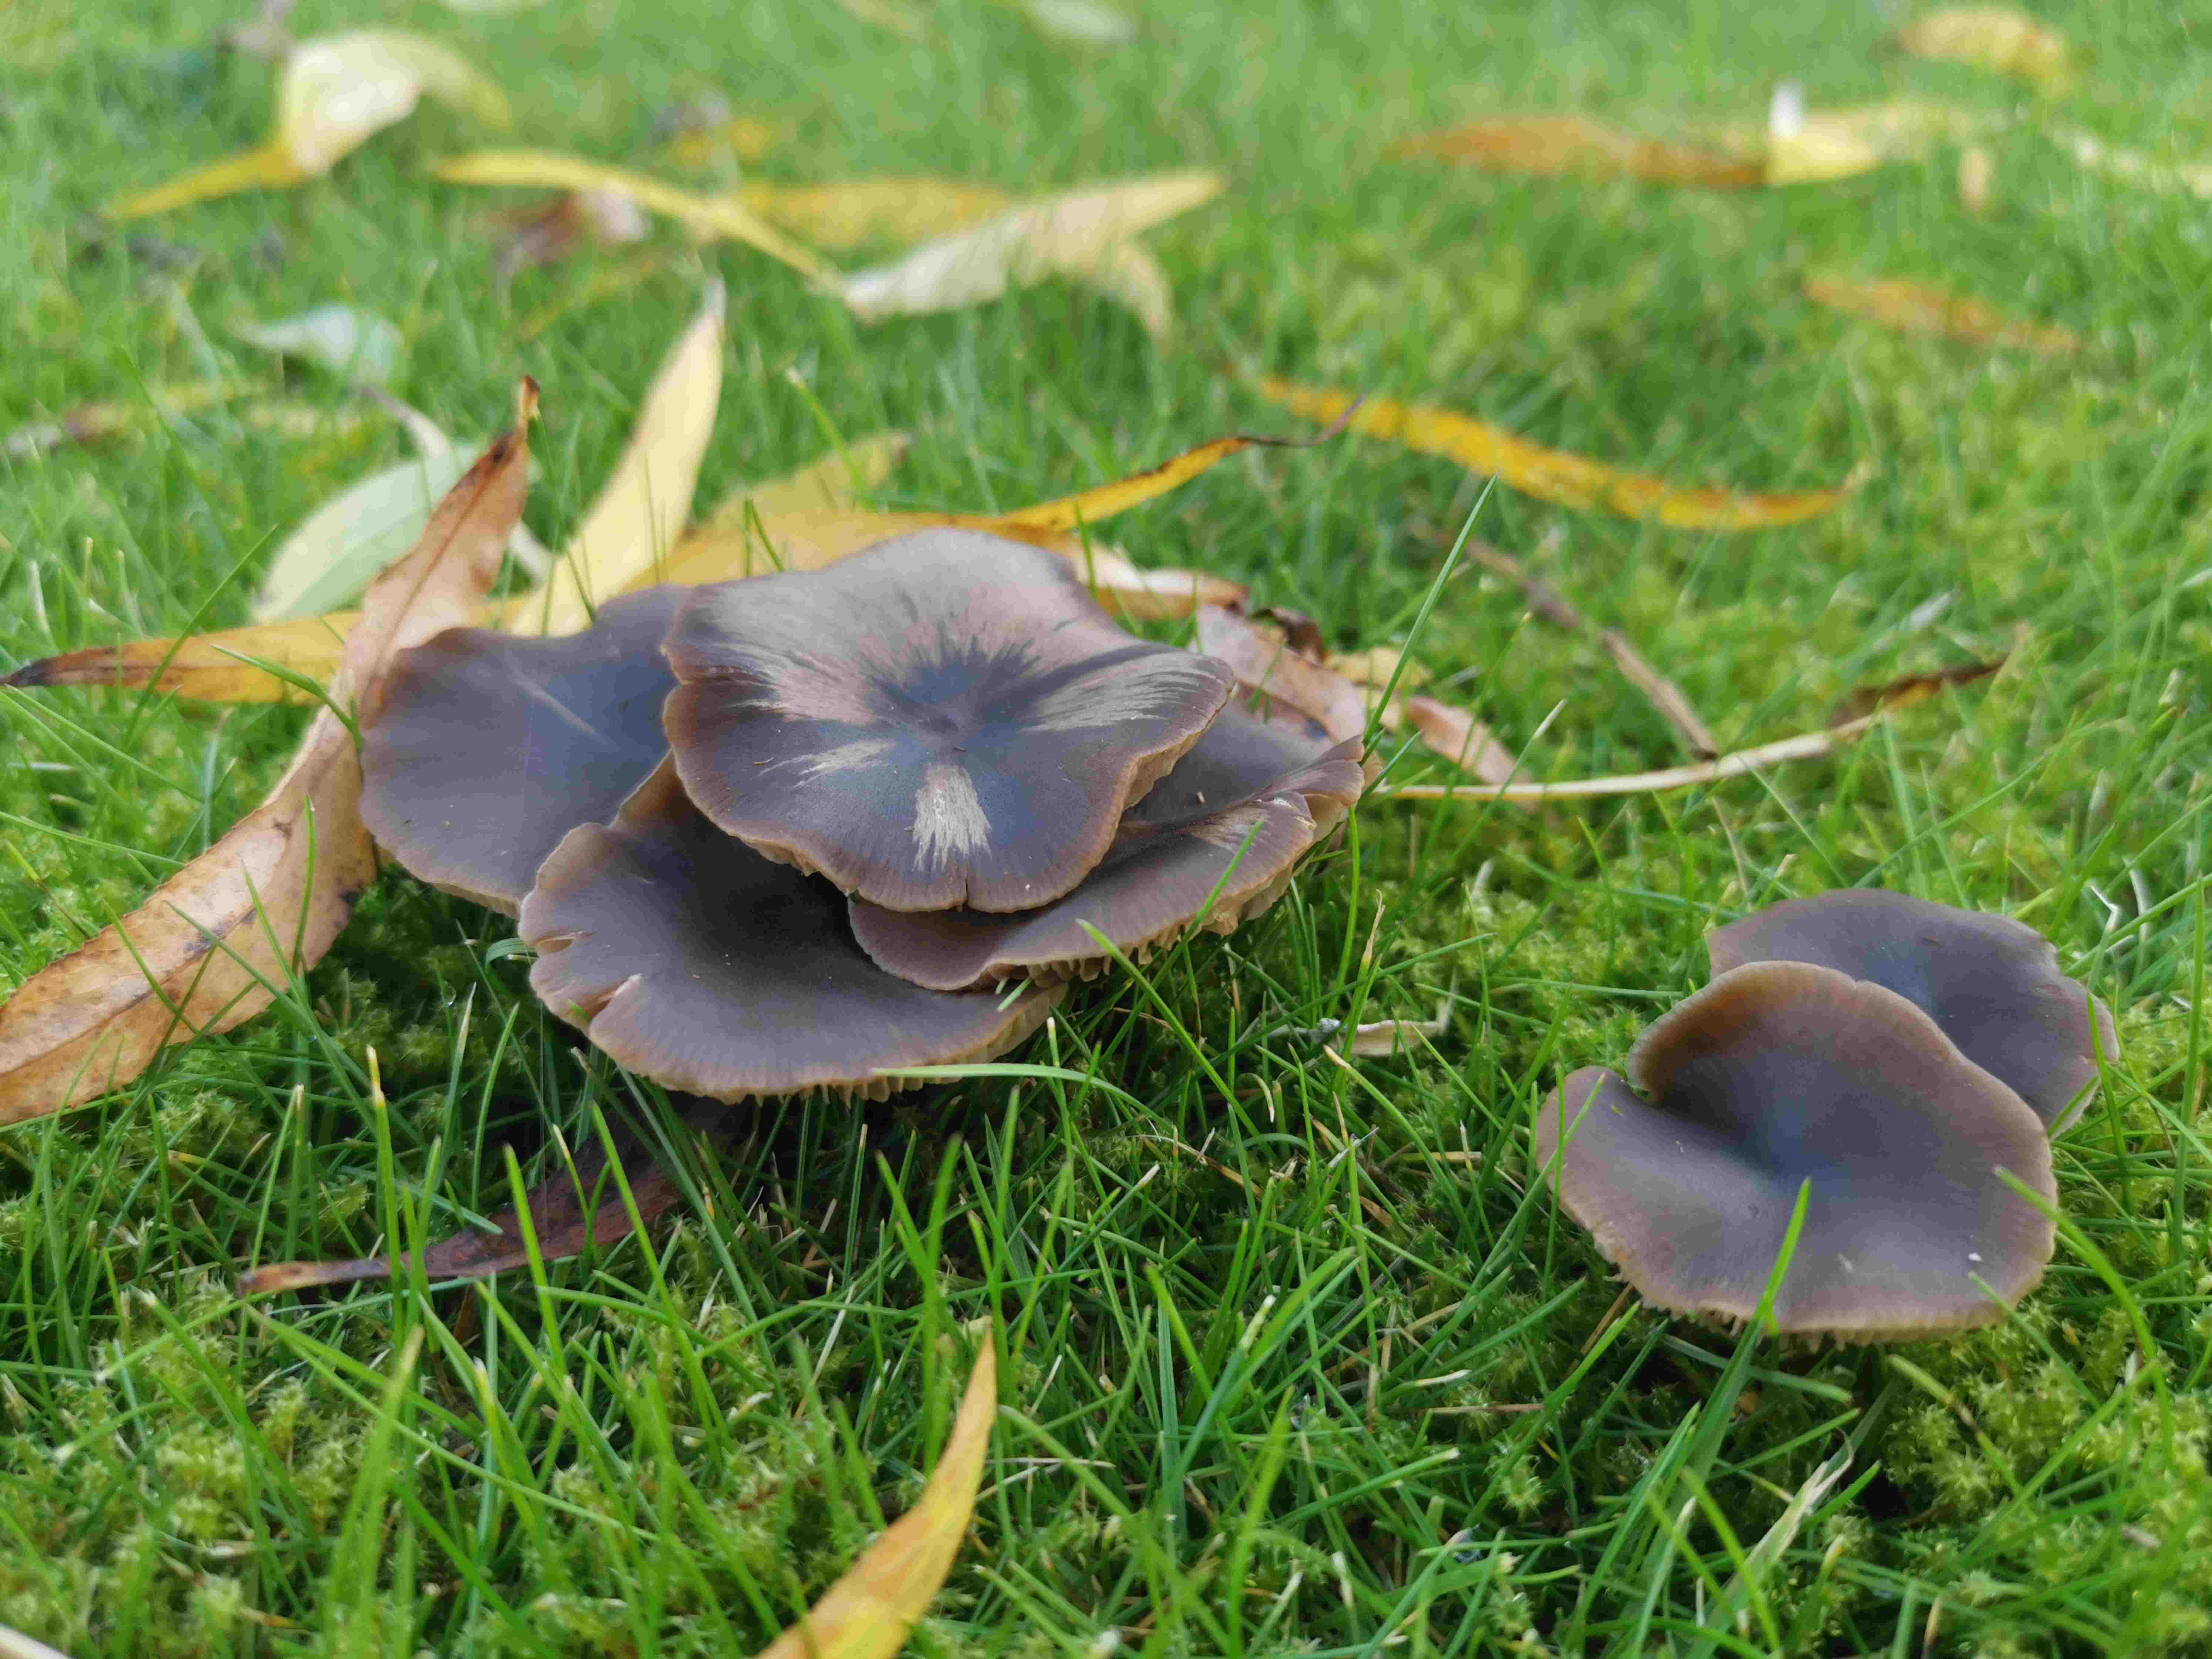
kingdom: Fungi
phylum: Basidiomycota
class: Agaricomycetes
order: Agaricales
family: Entolomataceae
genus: Entoloma
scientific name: Entoloma sericeum
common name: silkeglinsende rødblad
